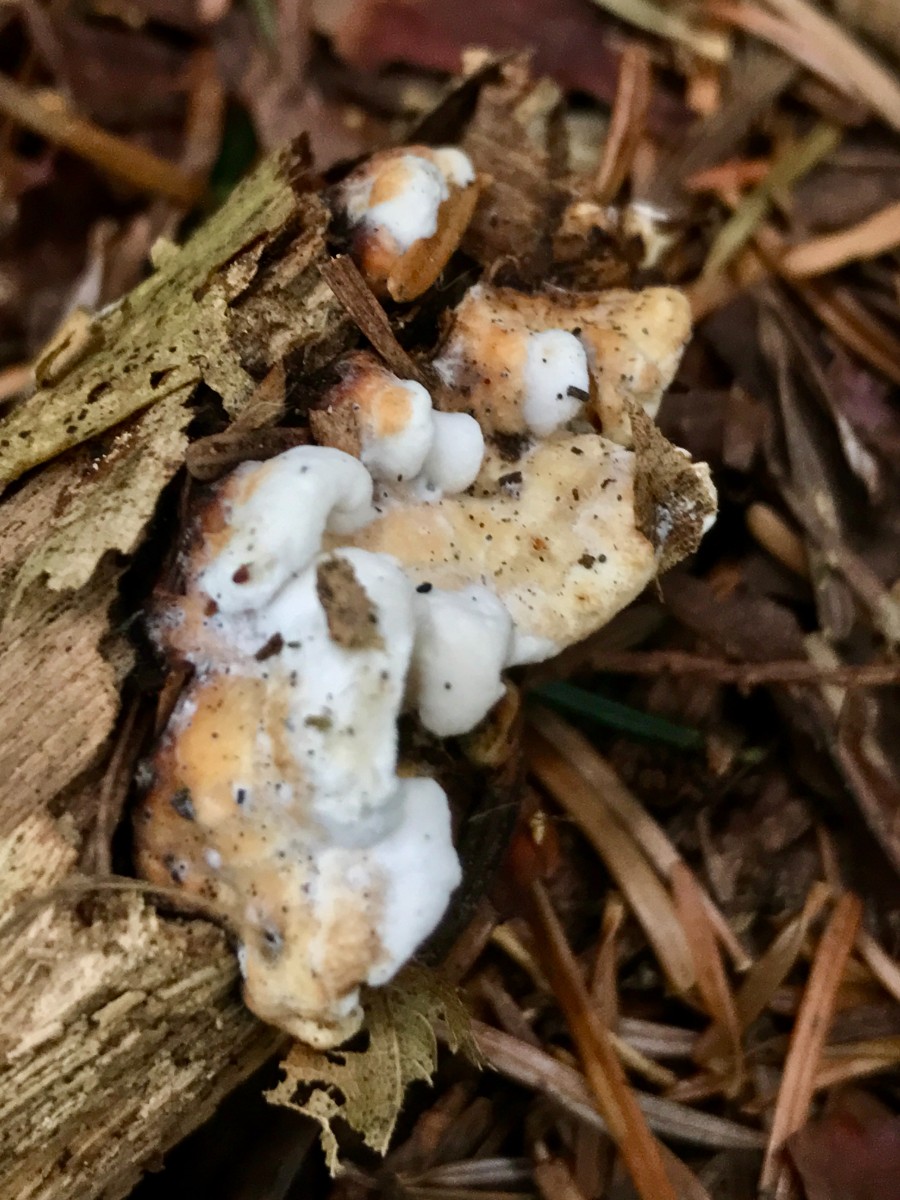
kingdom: Fungi
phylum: Basidiomycota
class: Agaricomycetes
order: Polyporales
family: Incrustoporiaceae
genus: Skeletocutis
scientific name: Skeletocutis nemoralis
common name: stor krystalporesvamp
